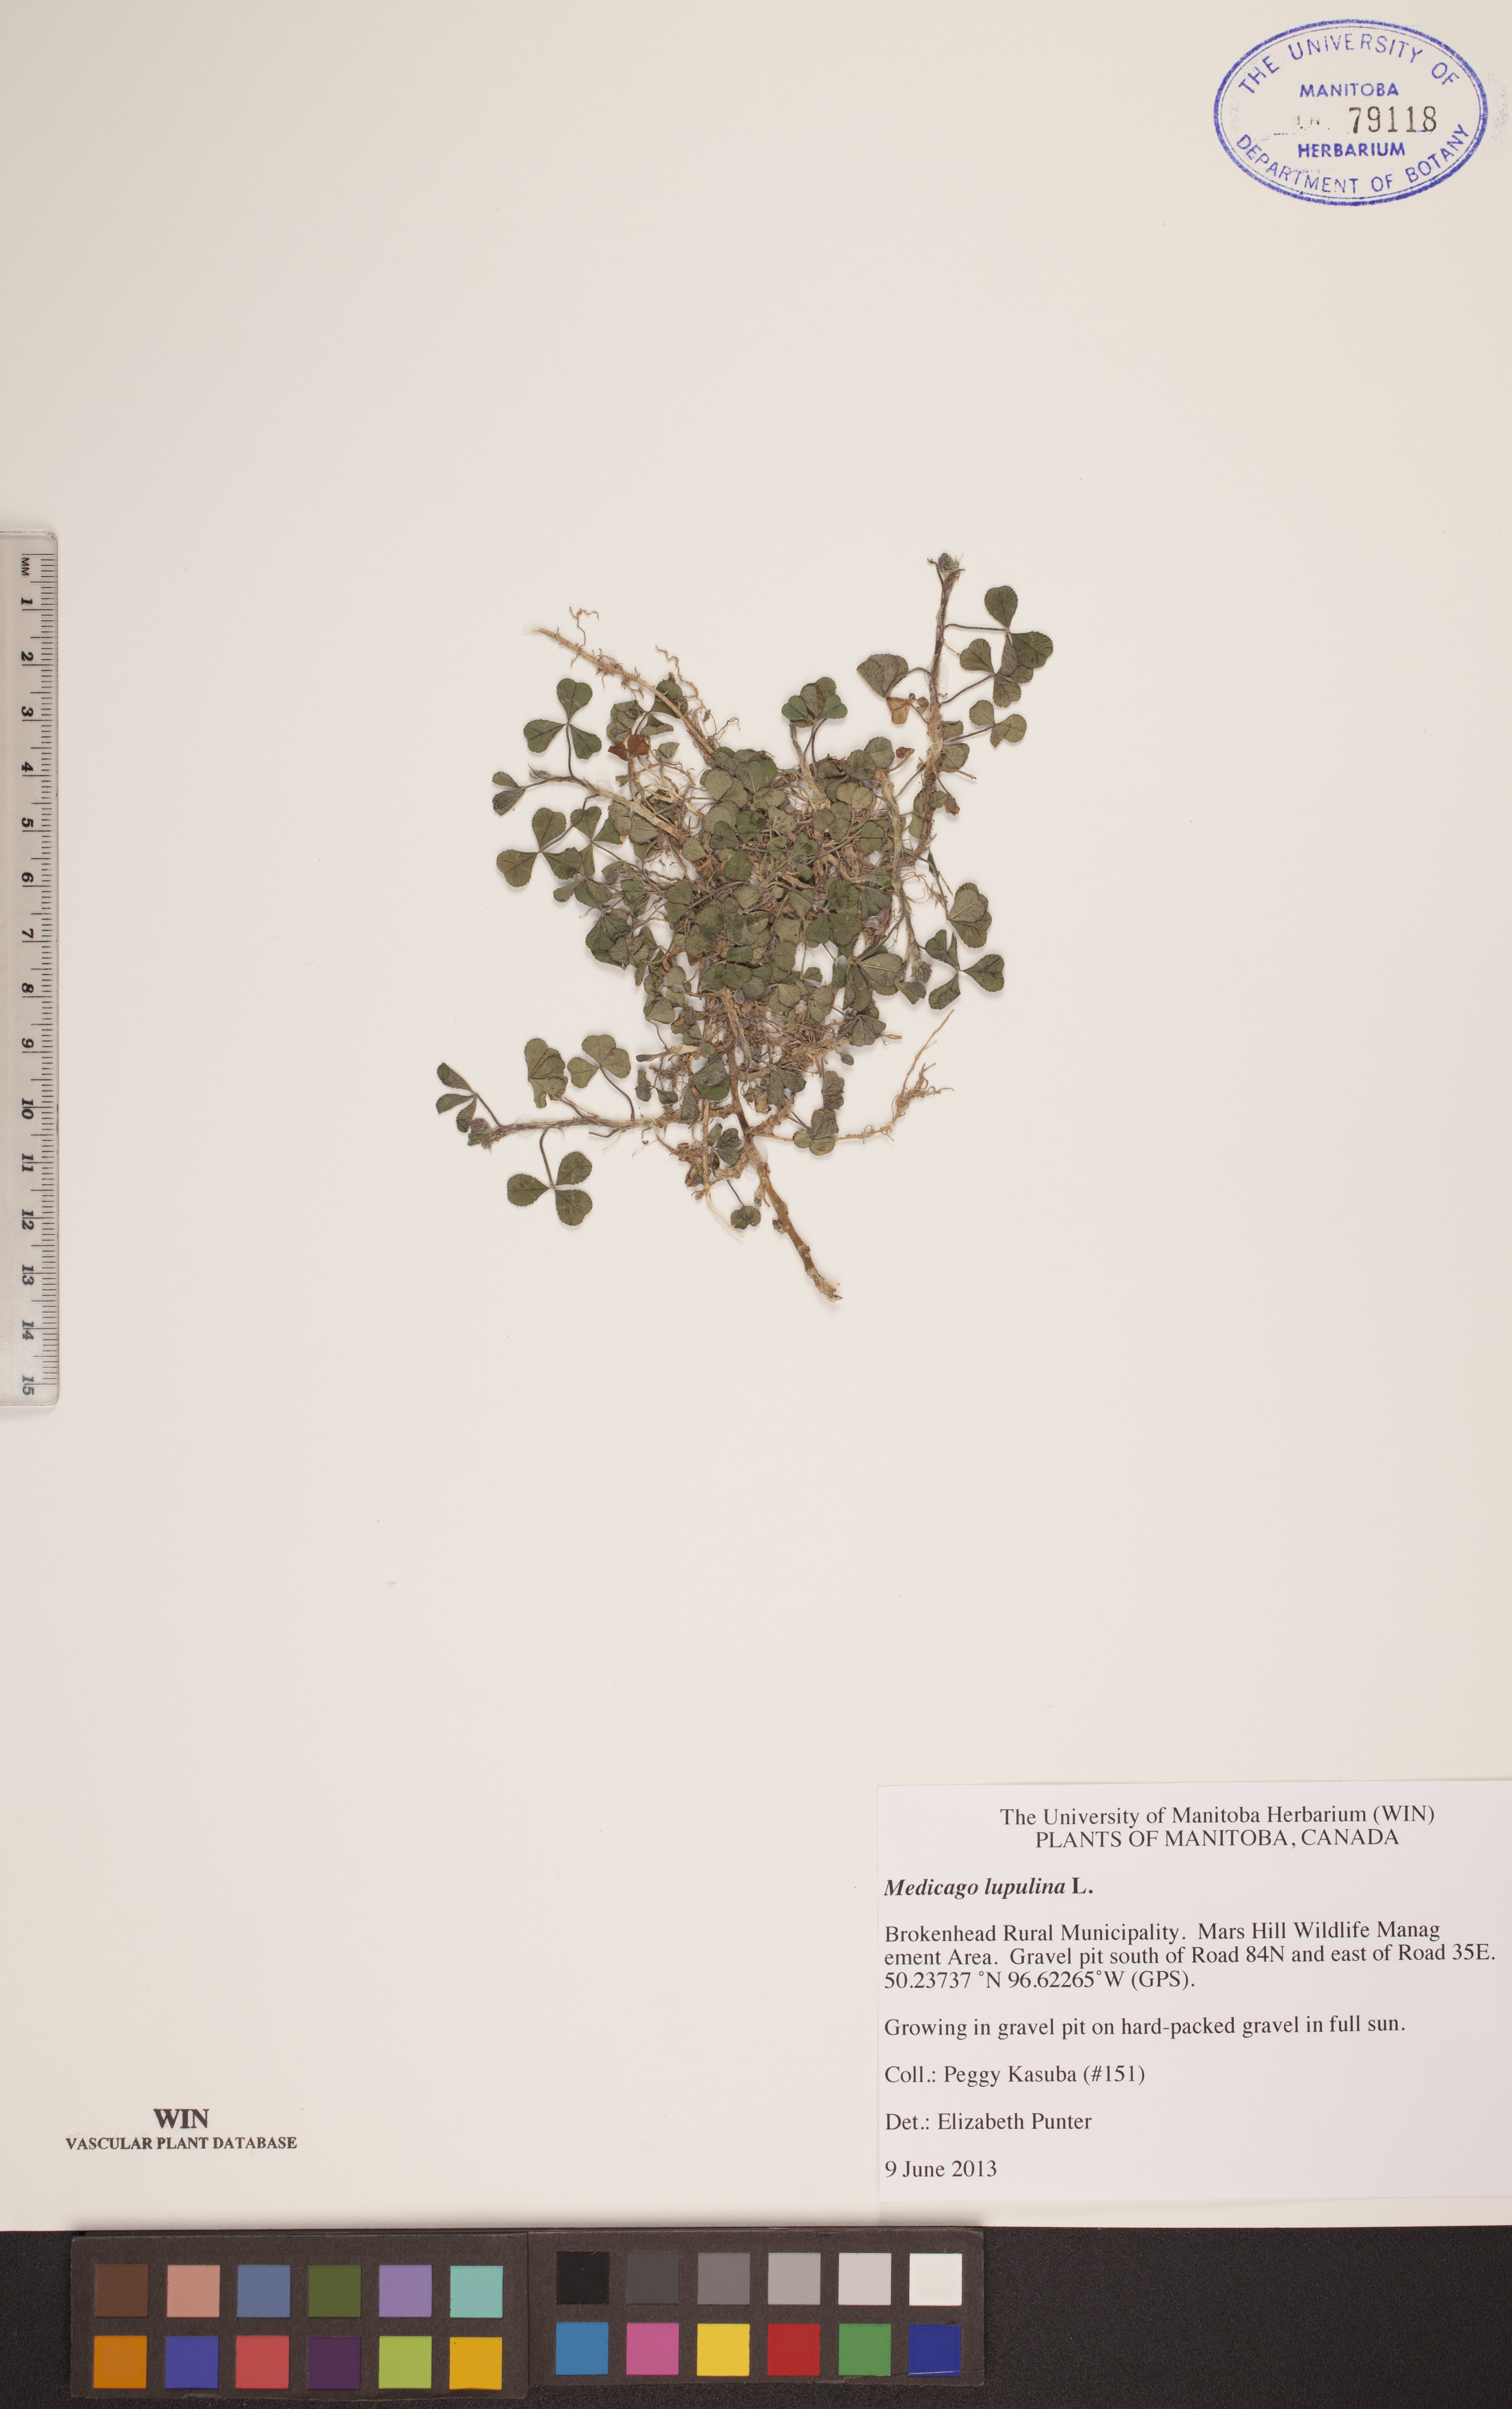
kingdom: Plantae
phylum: Tracheophyta
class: Magnoliopsida
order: Fabales
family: Fabaceae
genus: Medicago
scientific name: Medicago lupulina
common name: Black medick
